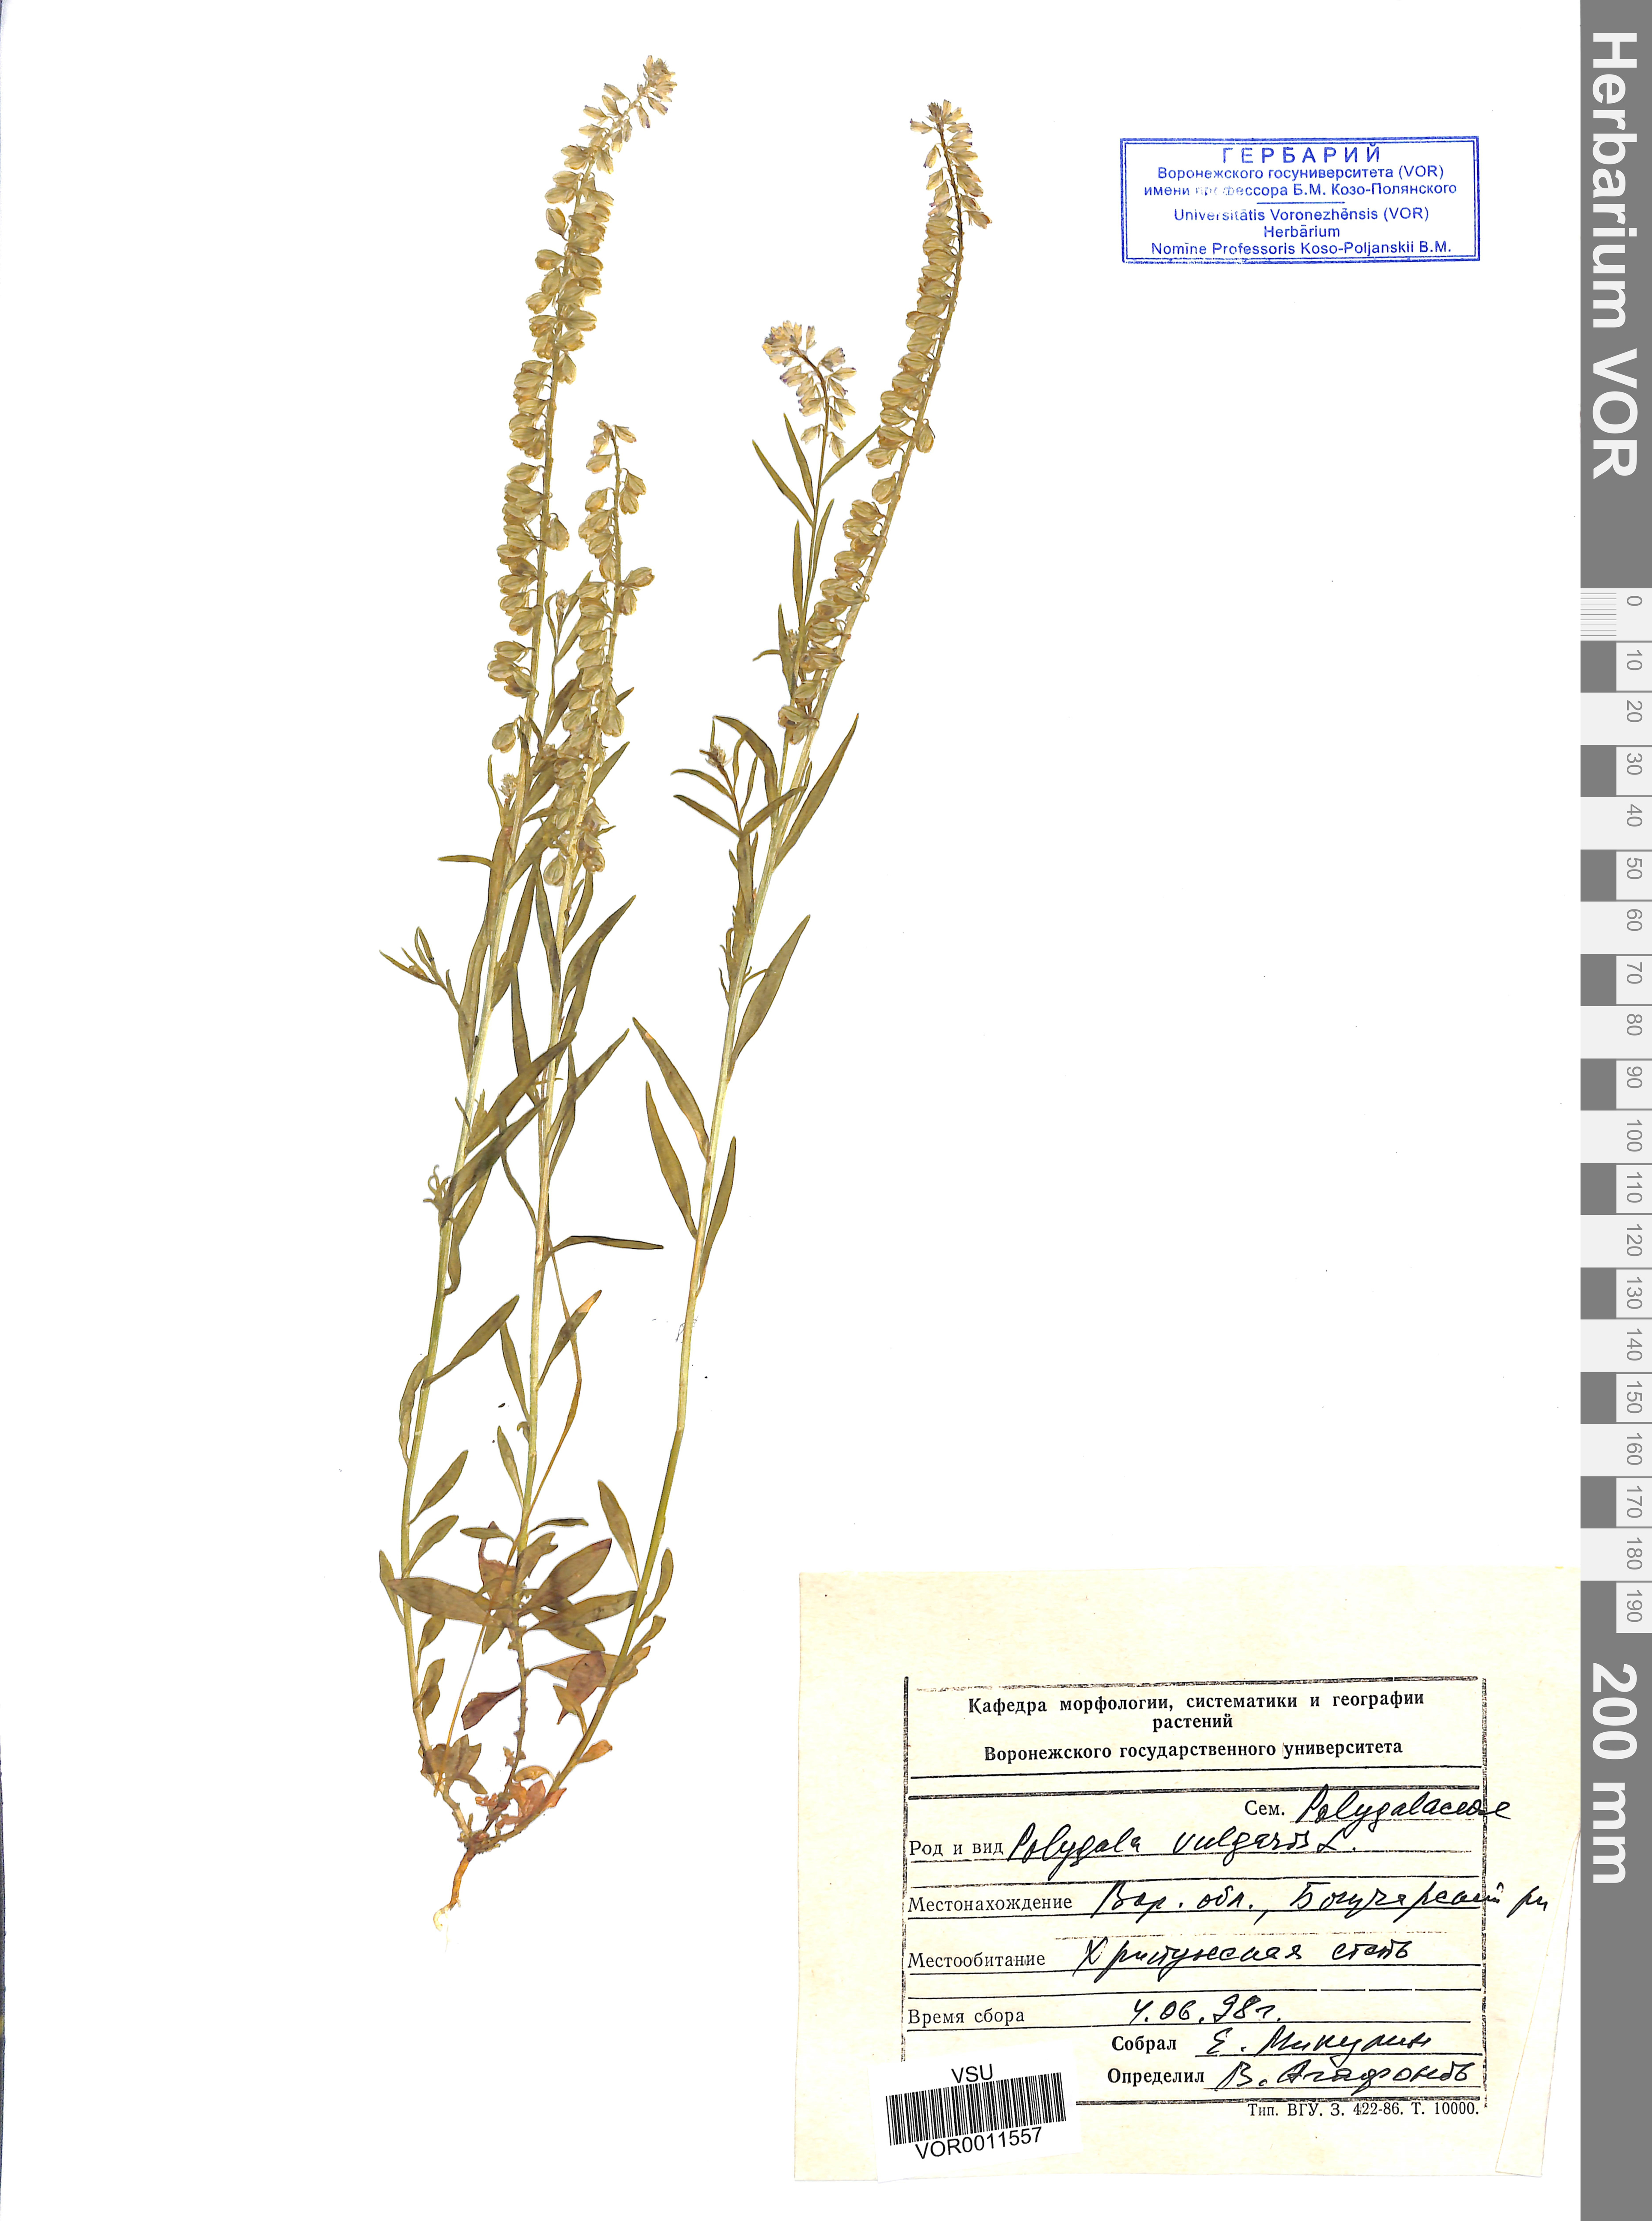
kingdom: Plantae
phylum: Tracheophyta
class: Magnoliopsida
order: Fabales
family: Polygalaceae
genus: Polygala
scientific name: Polygala vulgaris
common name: Common milkwort
